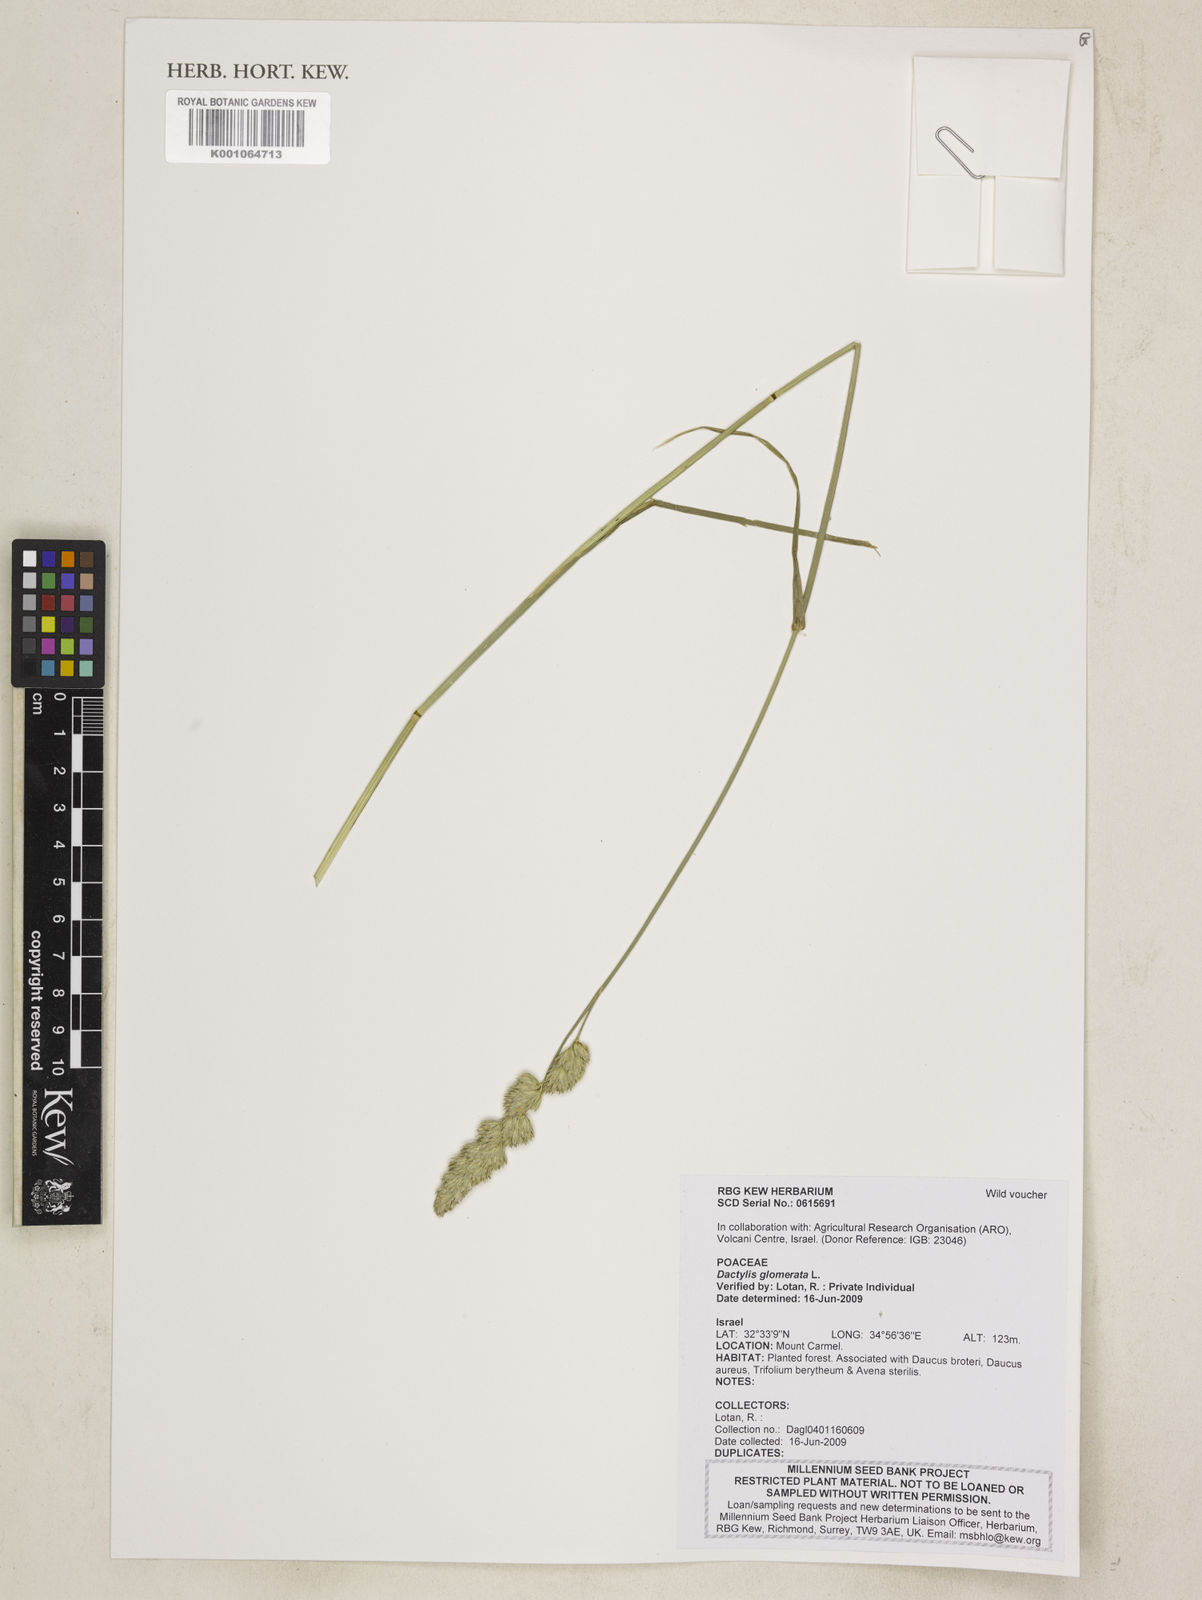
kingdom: Plantae
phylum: Tracheophyta
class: Liliopsida
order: Poales
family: Poaceae
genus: Dactylis
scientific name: Dactylis glomerata
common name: Orchardgrass
